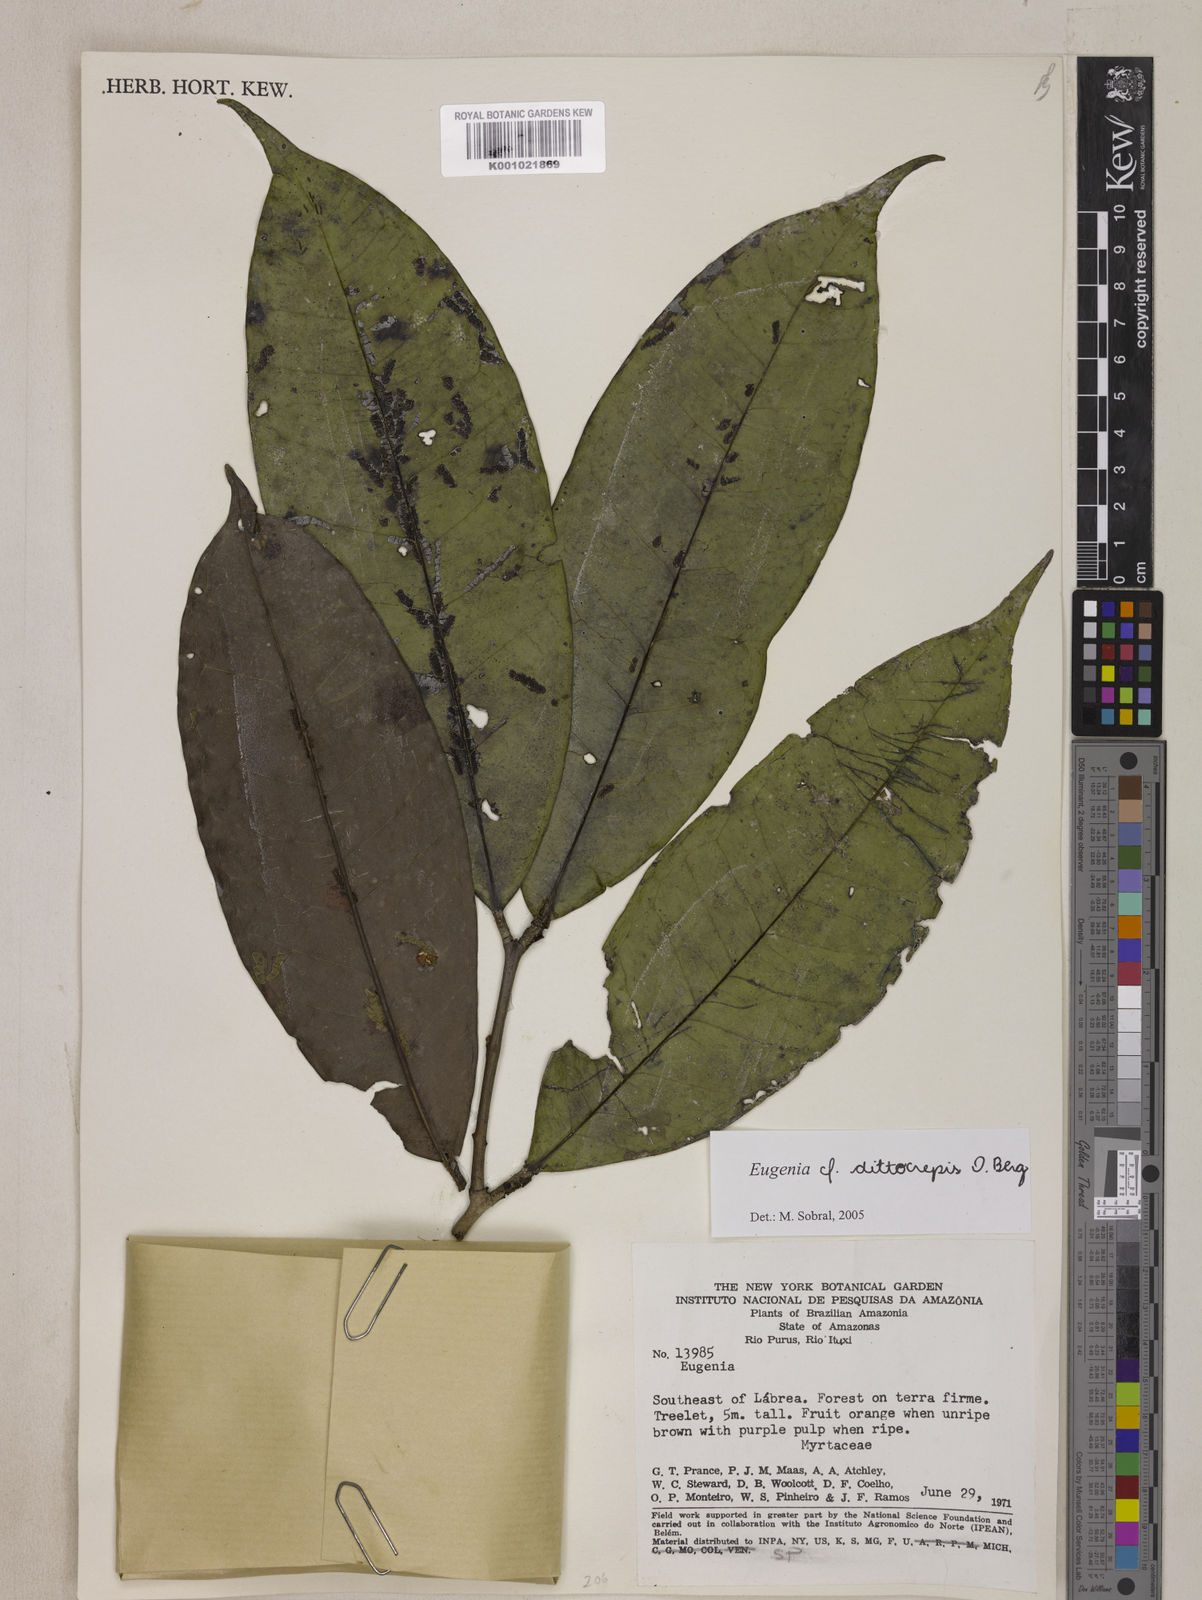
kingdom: Plantae
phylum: Tracheophyta
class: Magnoliopsida
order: Myrtales
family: Myrtaceae
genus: Eugenia
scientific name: Eugenia dittocrepis
